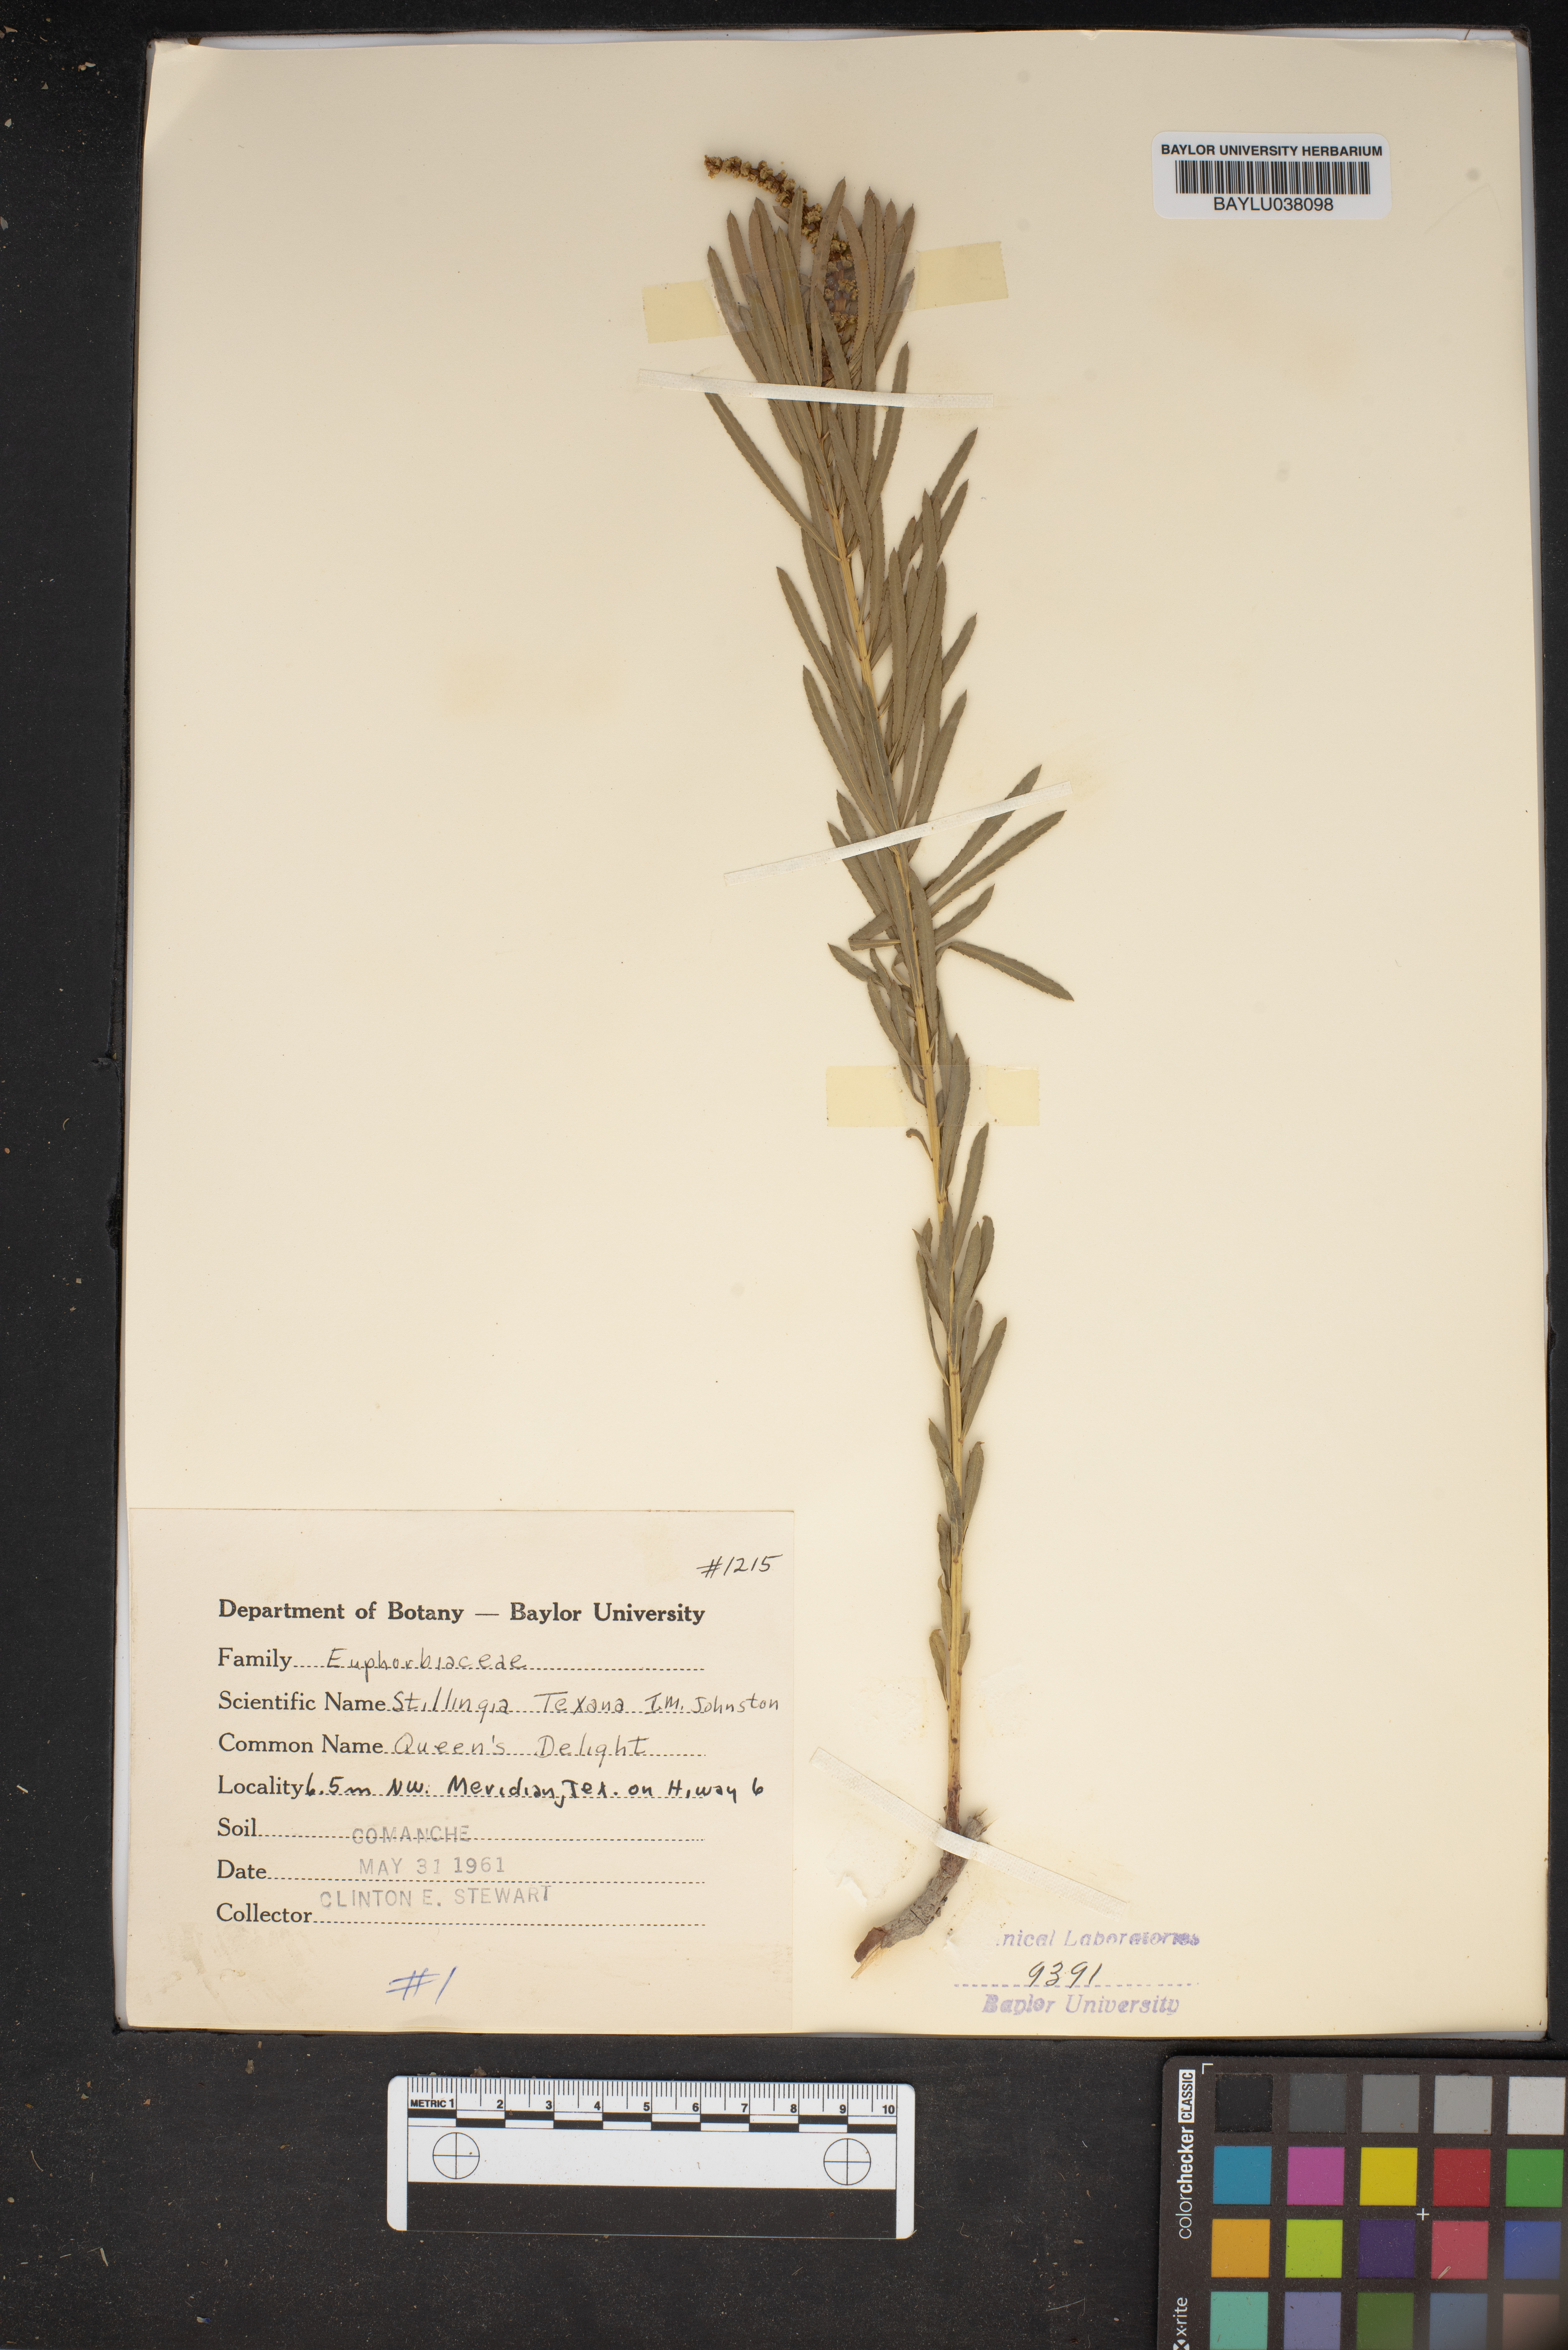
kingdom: Plantae
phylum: Tracheophyta
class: Magnoliopsida
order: Malpighiales
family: Euphorbiaceae
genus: Stillingia
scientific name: Stillingia texana
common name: Texas stillingia
